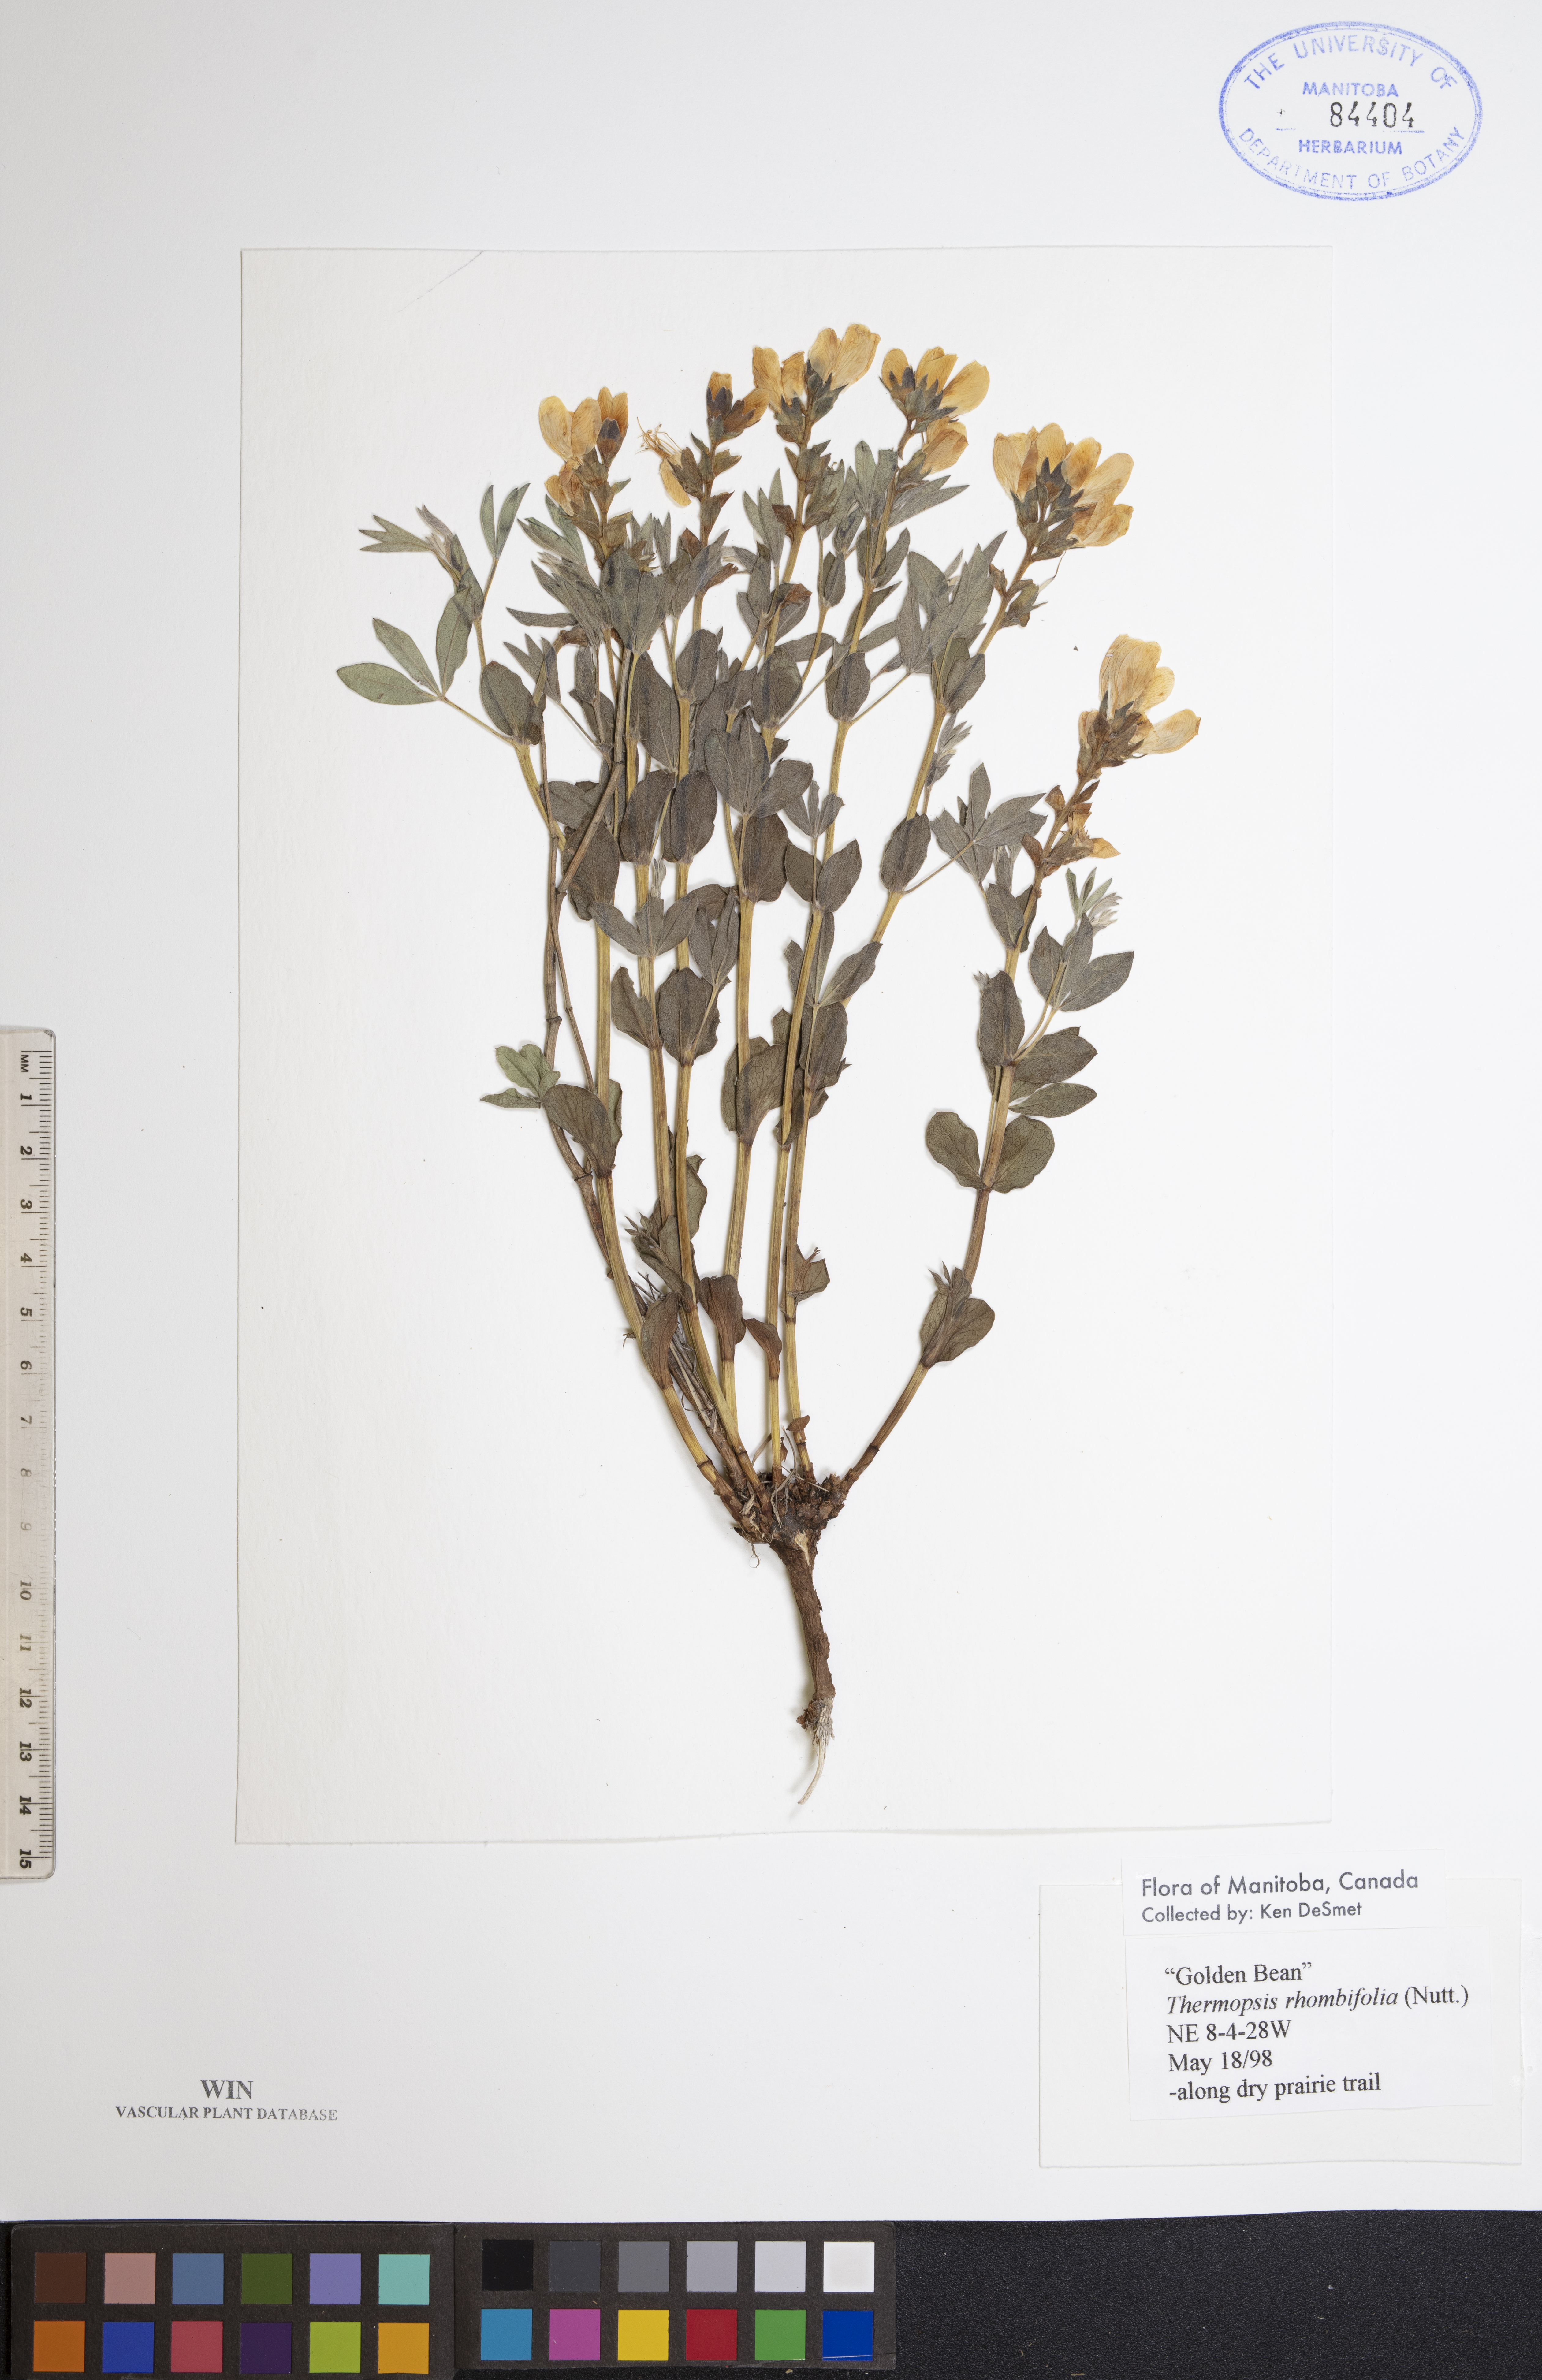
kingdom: Plantae
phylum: Tracheophyta
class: Magnoliopsida
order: Fabales
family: Fabaceae
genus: Thermopsis
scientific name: Thermopsis rhombifolia
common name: Circle-pod-pea
